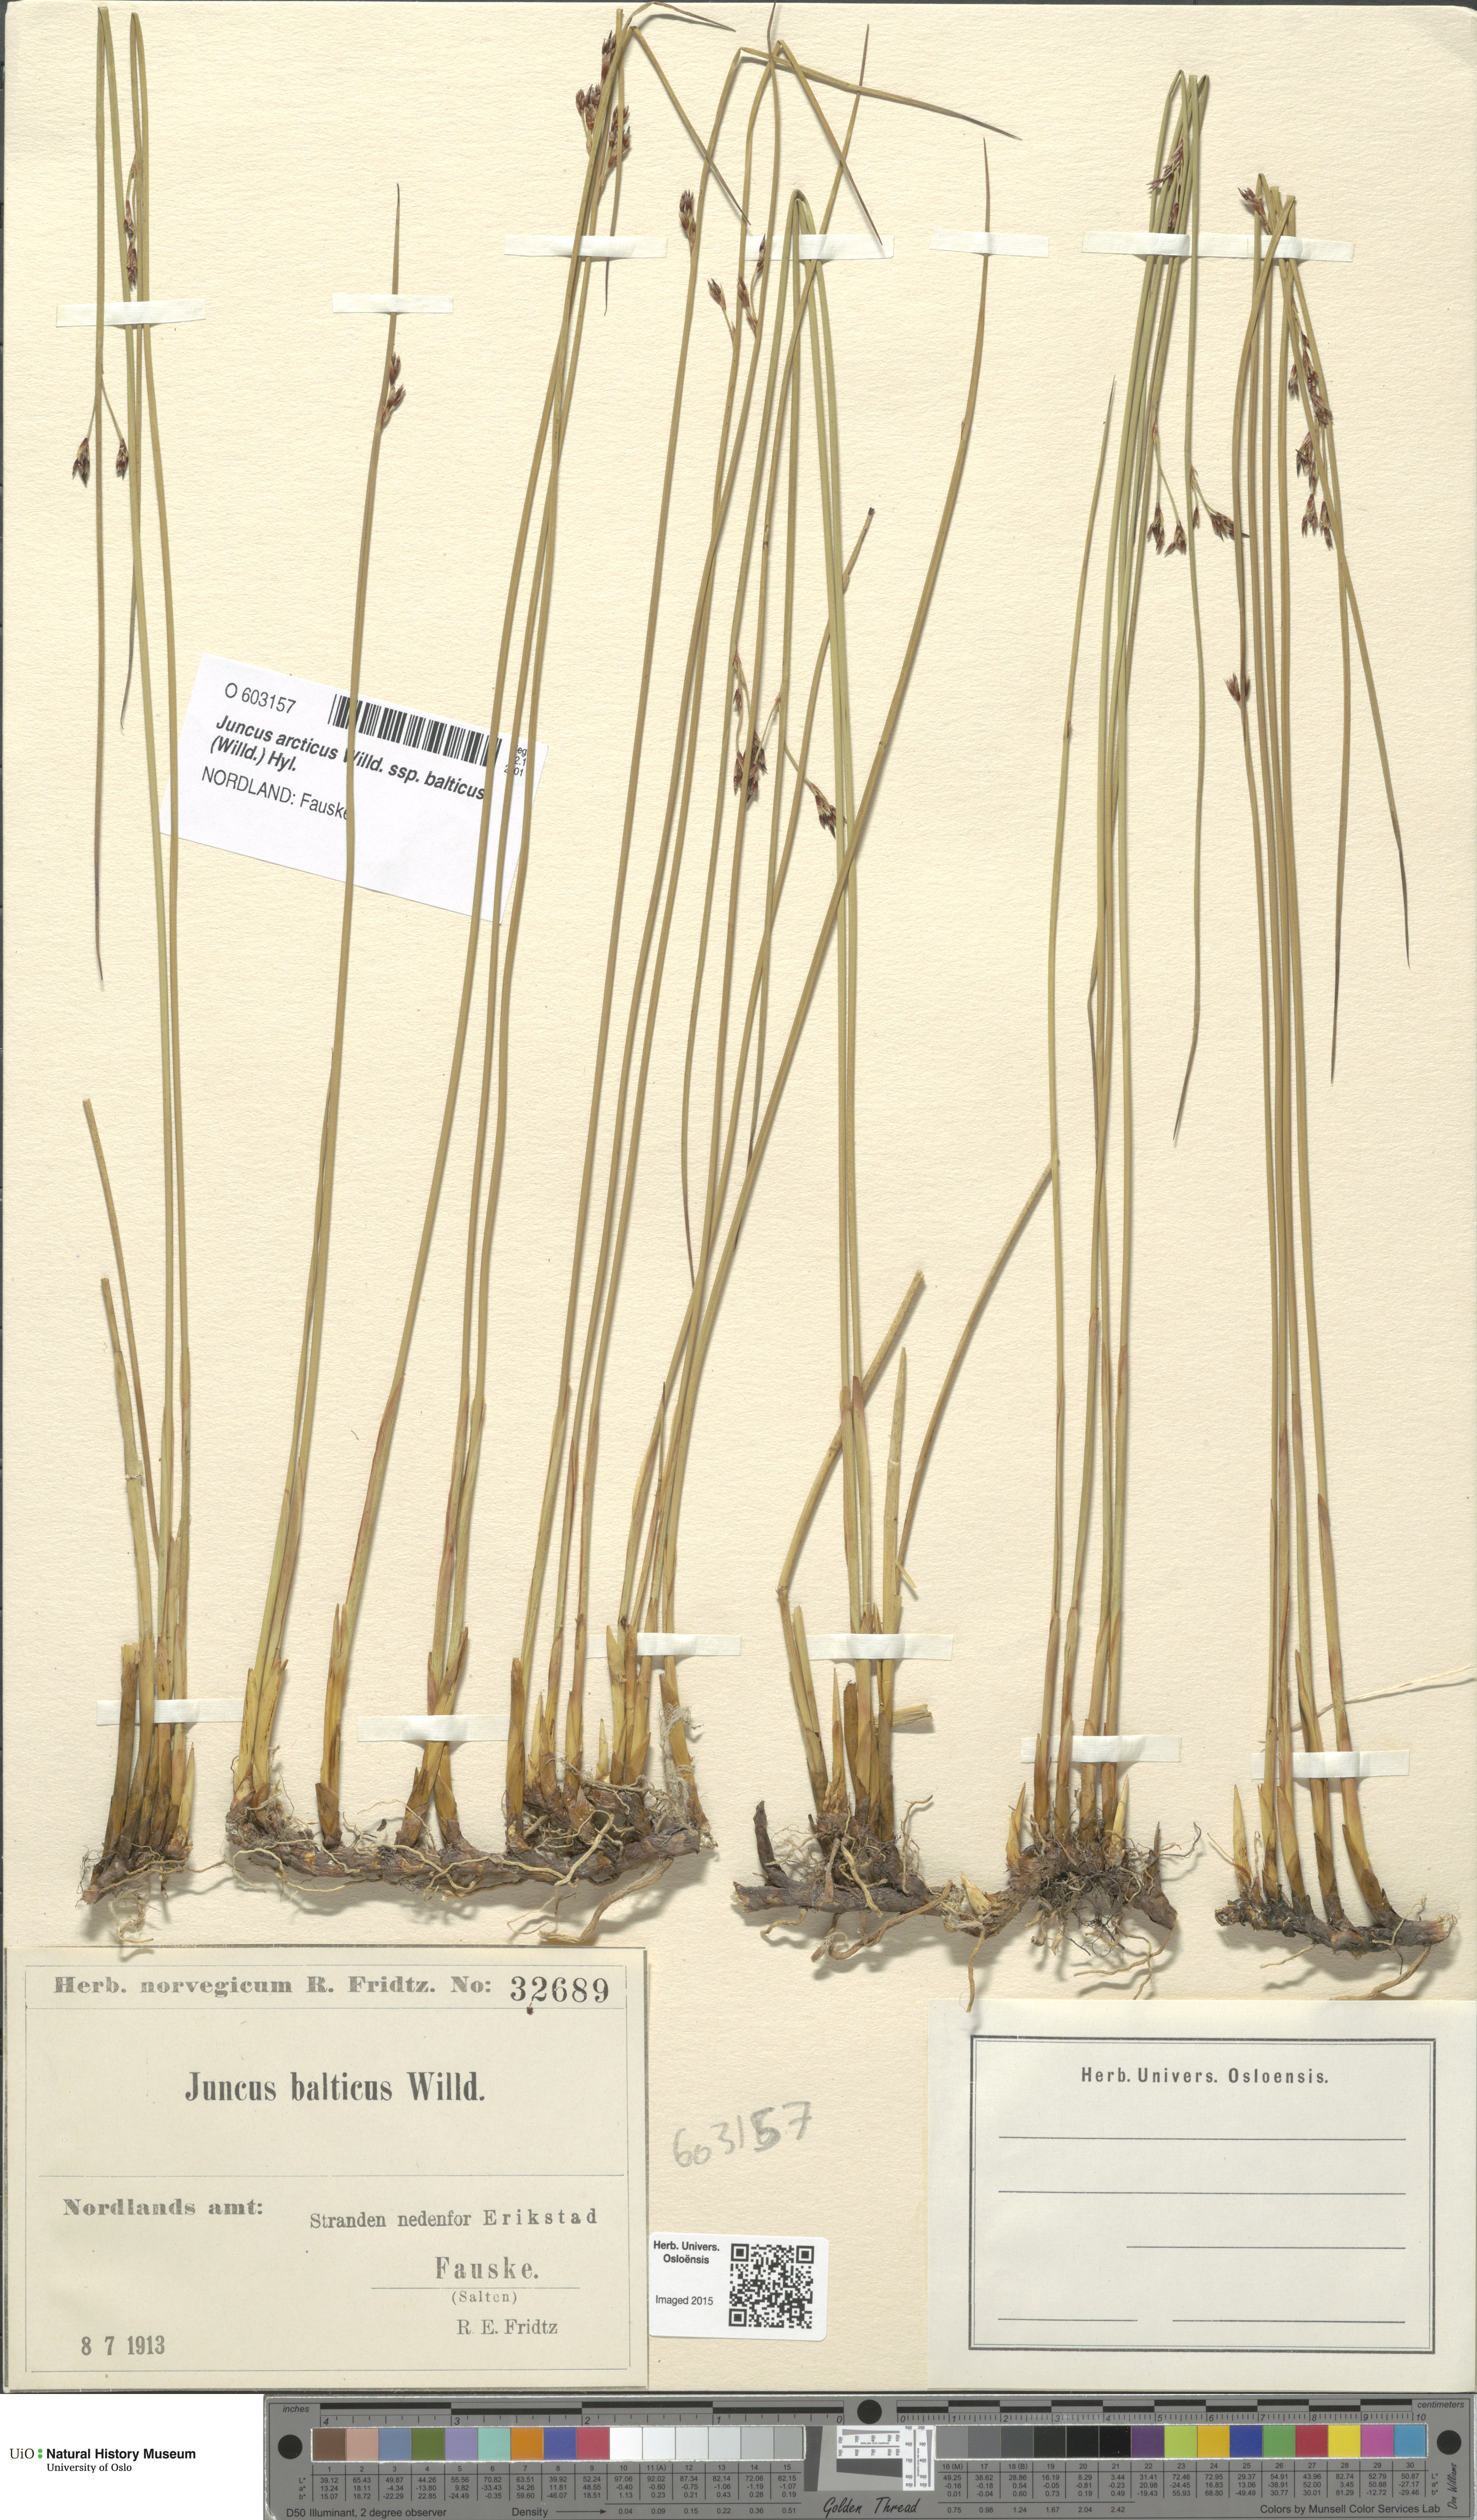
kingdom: Plantae
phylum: Tracheophyta
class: Liliopsida
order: Poales
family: Juncaceae
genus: Juncus
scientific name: Juncus balticus
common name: Baltic rush
